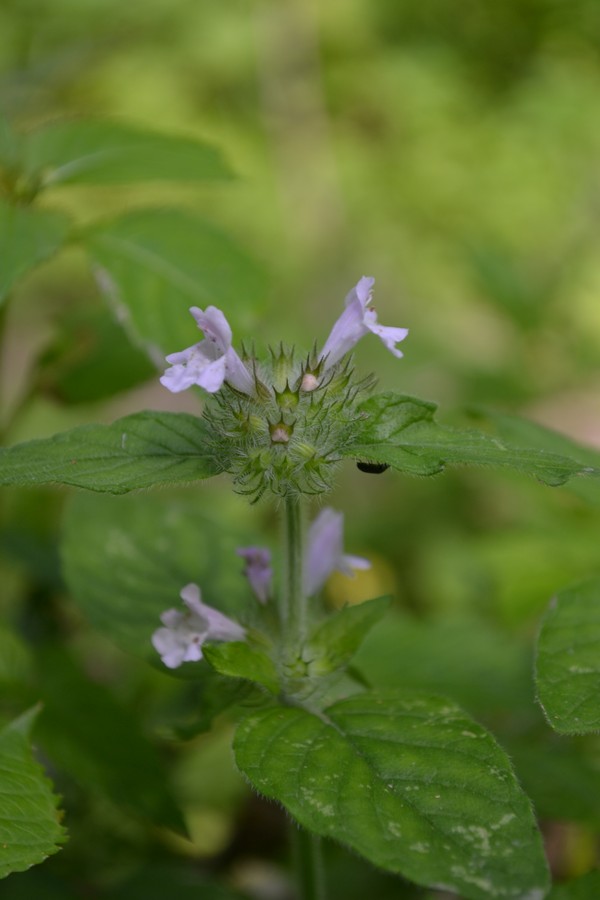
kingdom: Plantae
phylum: Tracheophyta
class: Magnoliopsida
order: Lamiales
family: Lamiaceae
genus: Galeopsis
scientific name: Galeopsis bifida
